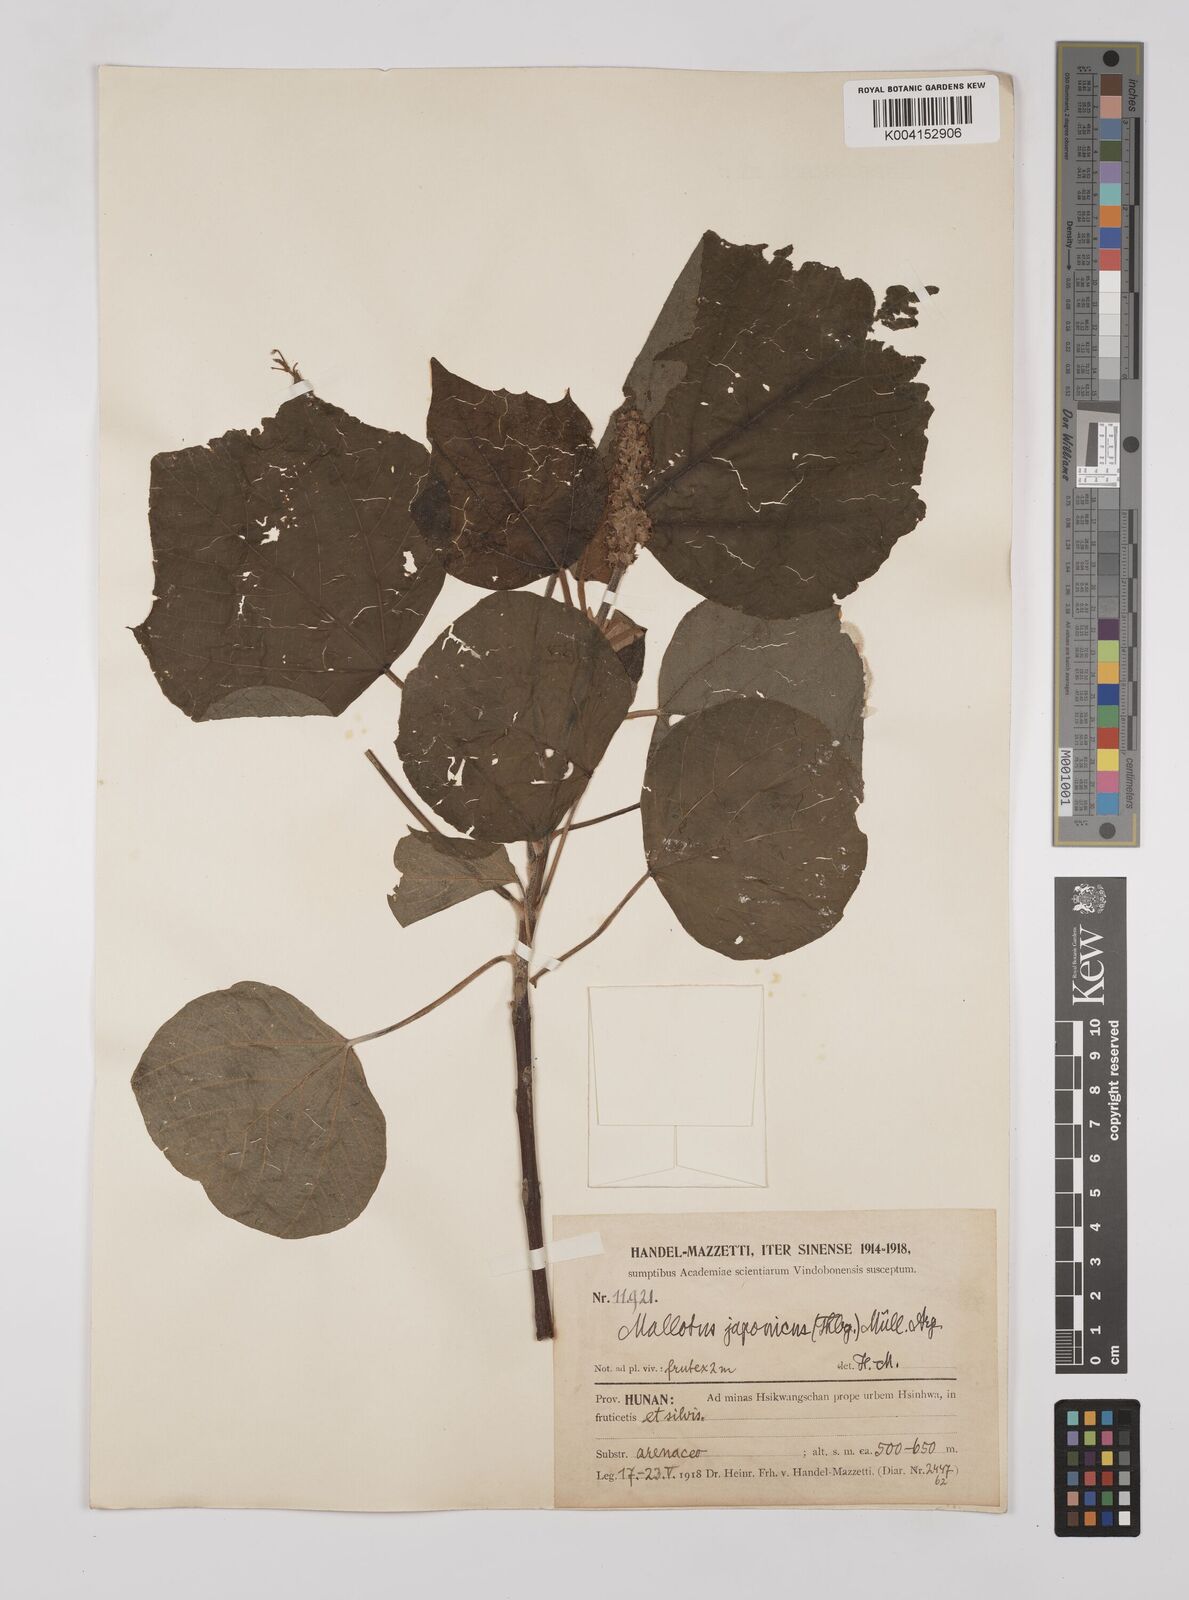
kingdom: Plantae
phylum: Tracheophyta
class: Magnoliopsida
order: Malpighiales
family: Euphorbiaceae
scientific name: Euphorbiaceae
